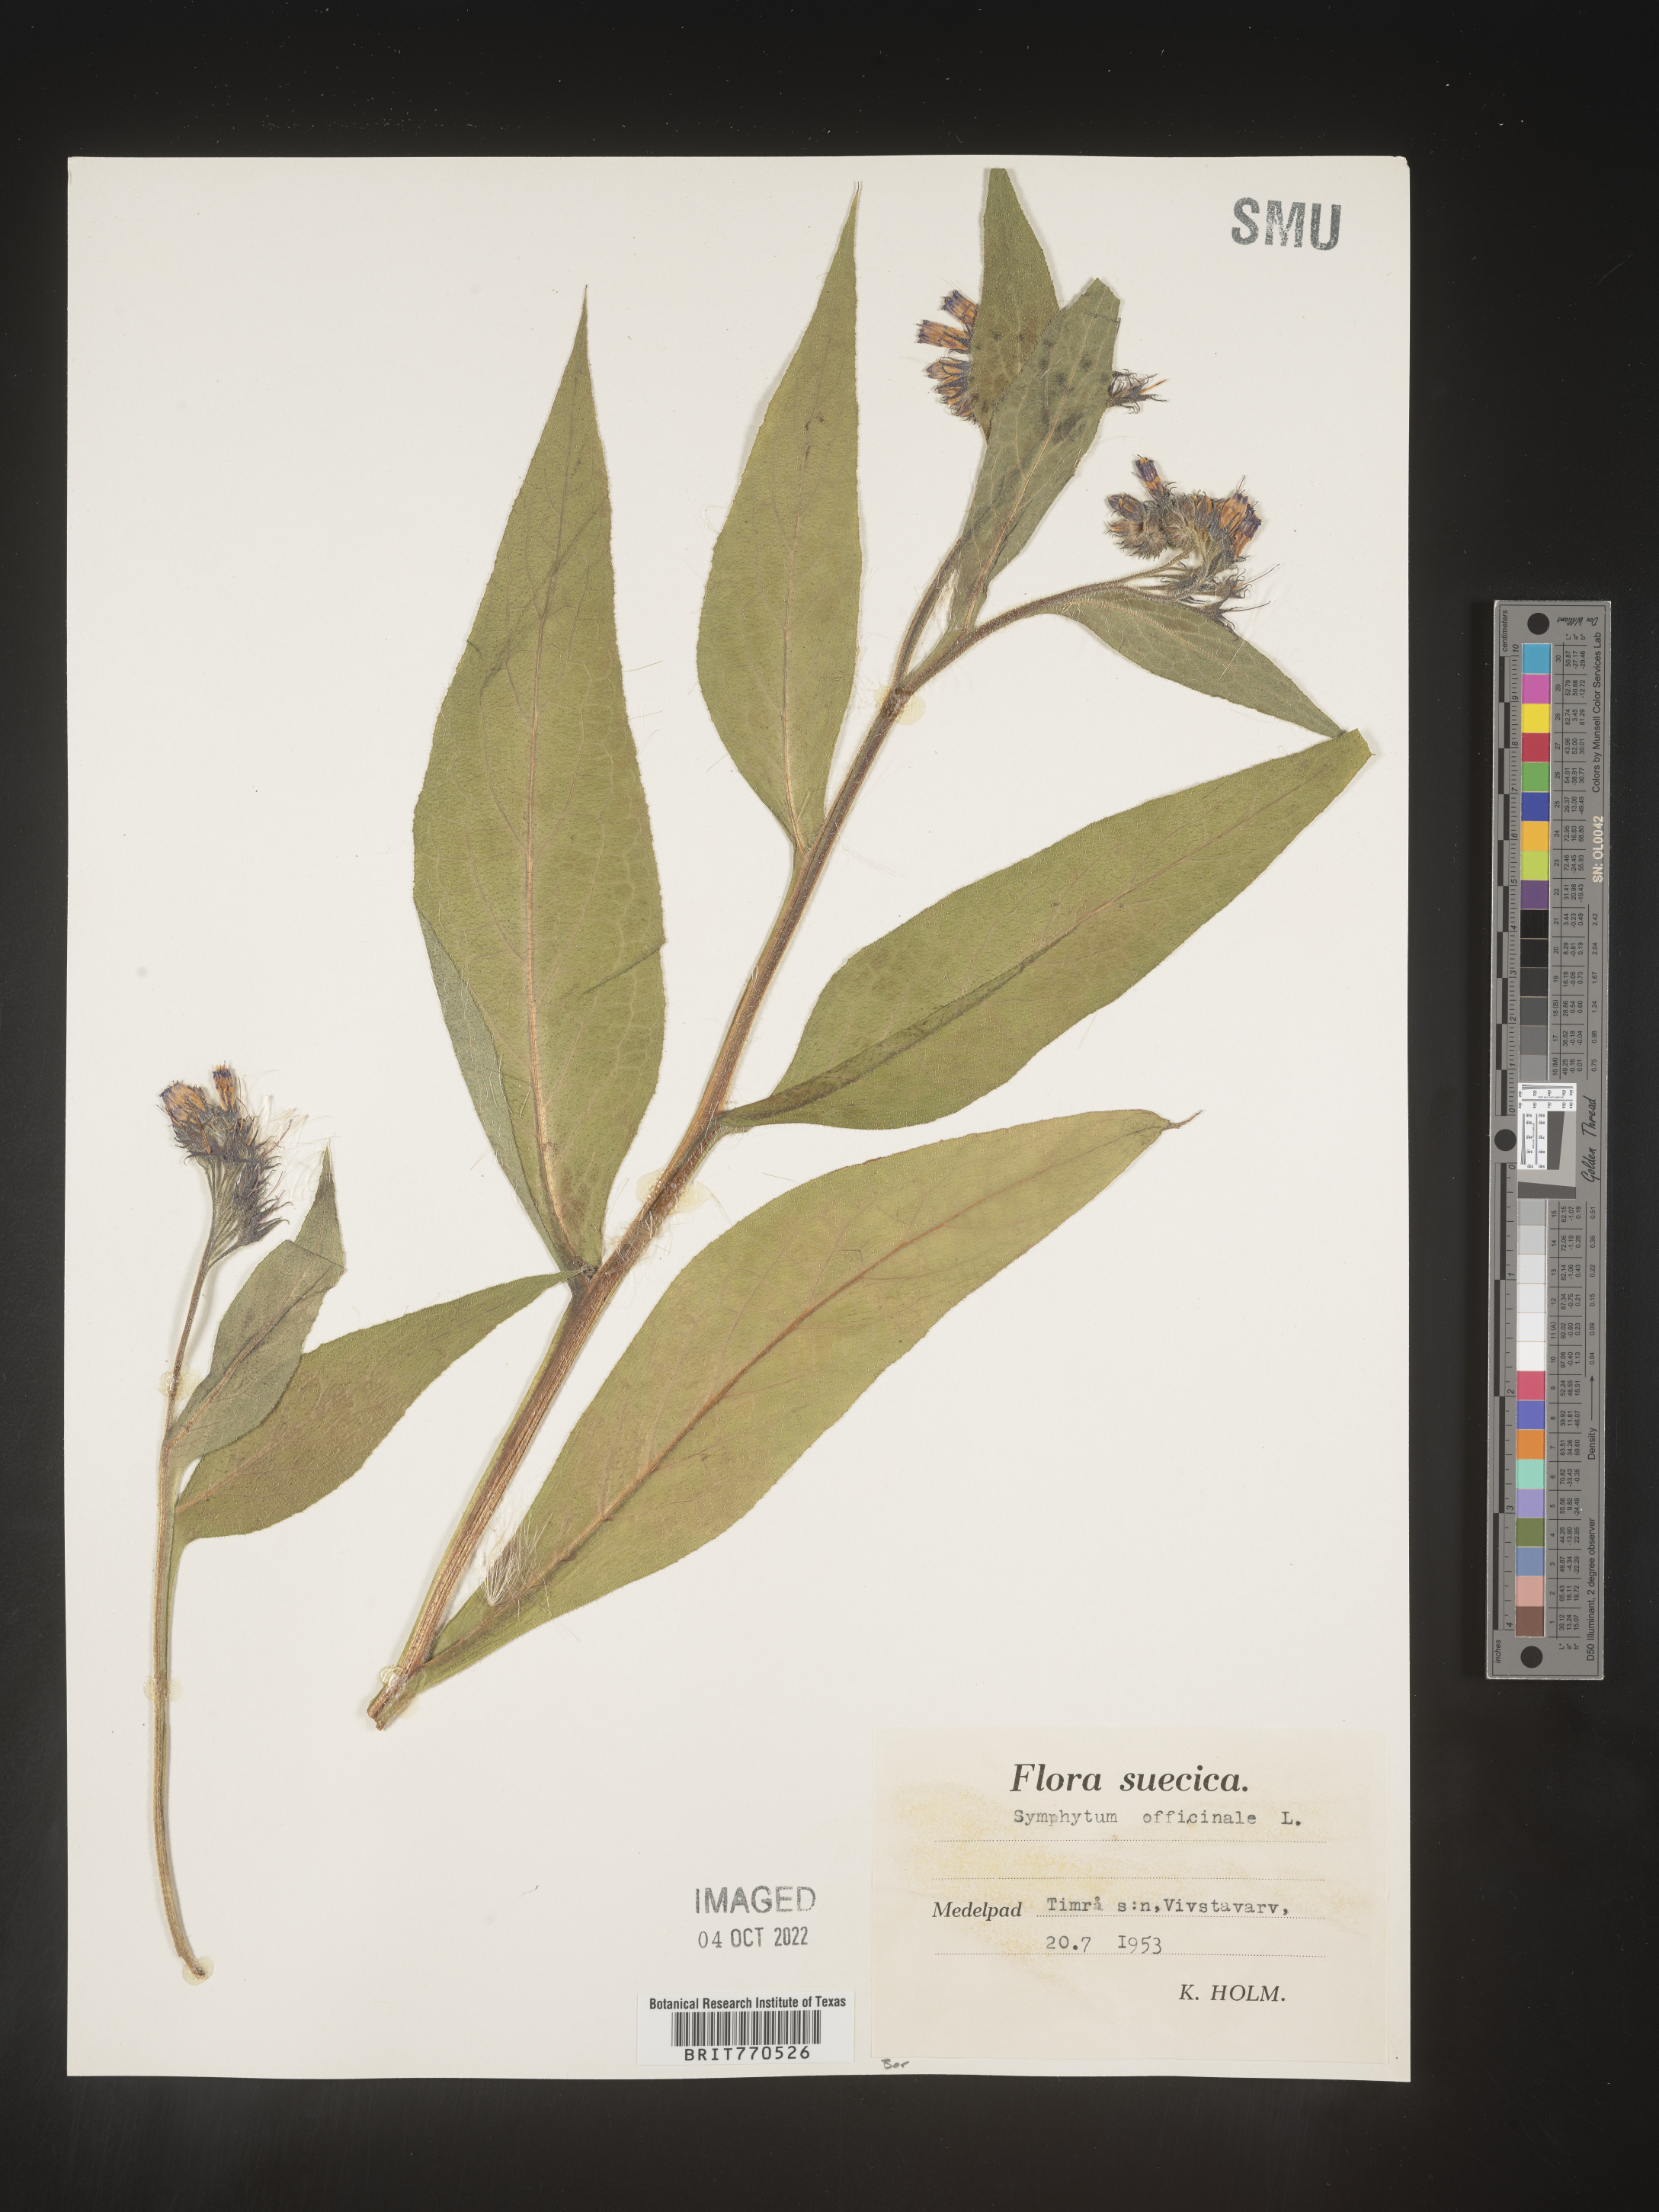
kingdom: Plantae
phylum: Tracheophyta
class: Magnoliopsida
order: Boraginales
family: Boraginaceae
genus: Symphytum
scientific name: Symphytum
